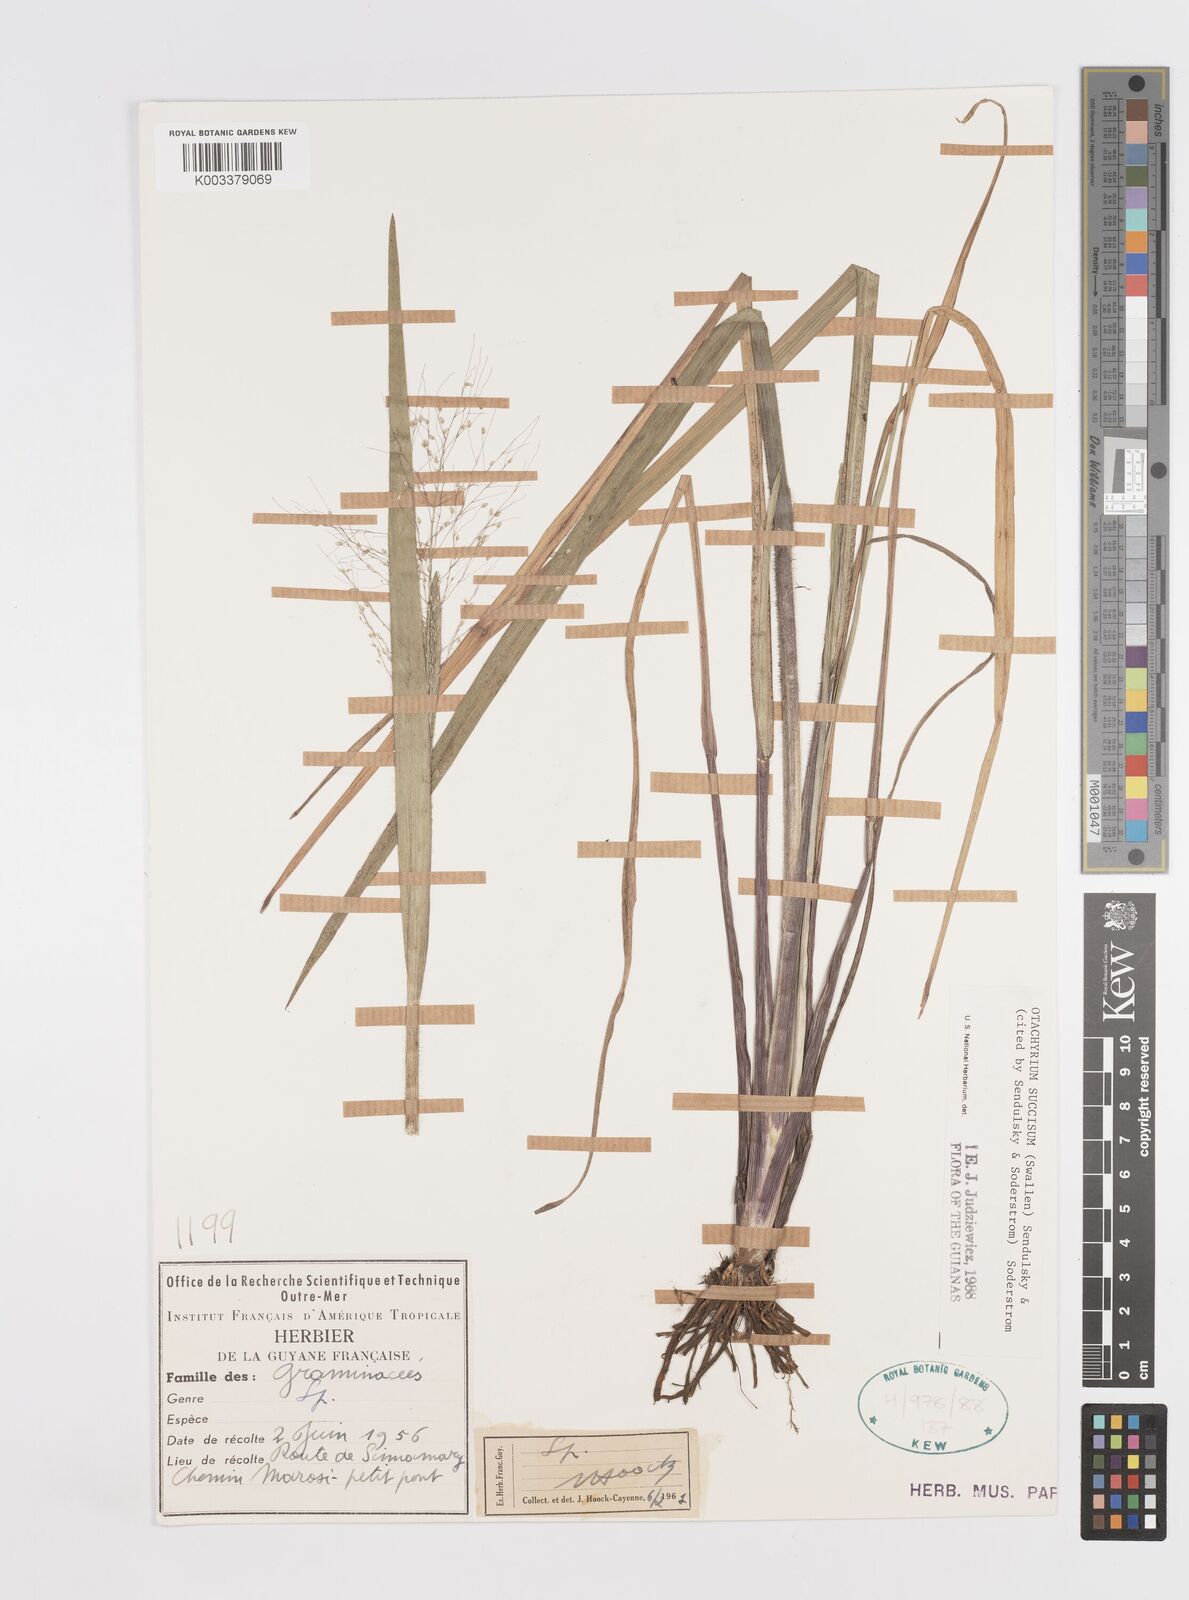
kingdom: Plantae
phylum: Tracheophyta
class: Liliopsida
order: Poales
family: Poaceae
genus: Otachyrium
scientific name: Otachyrium inaequale
